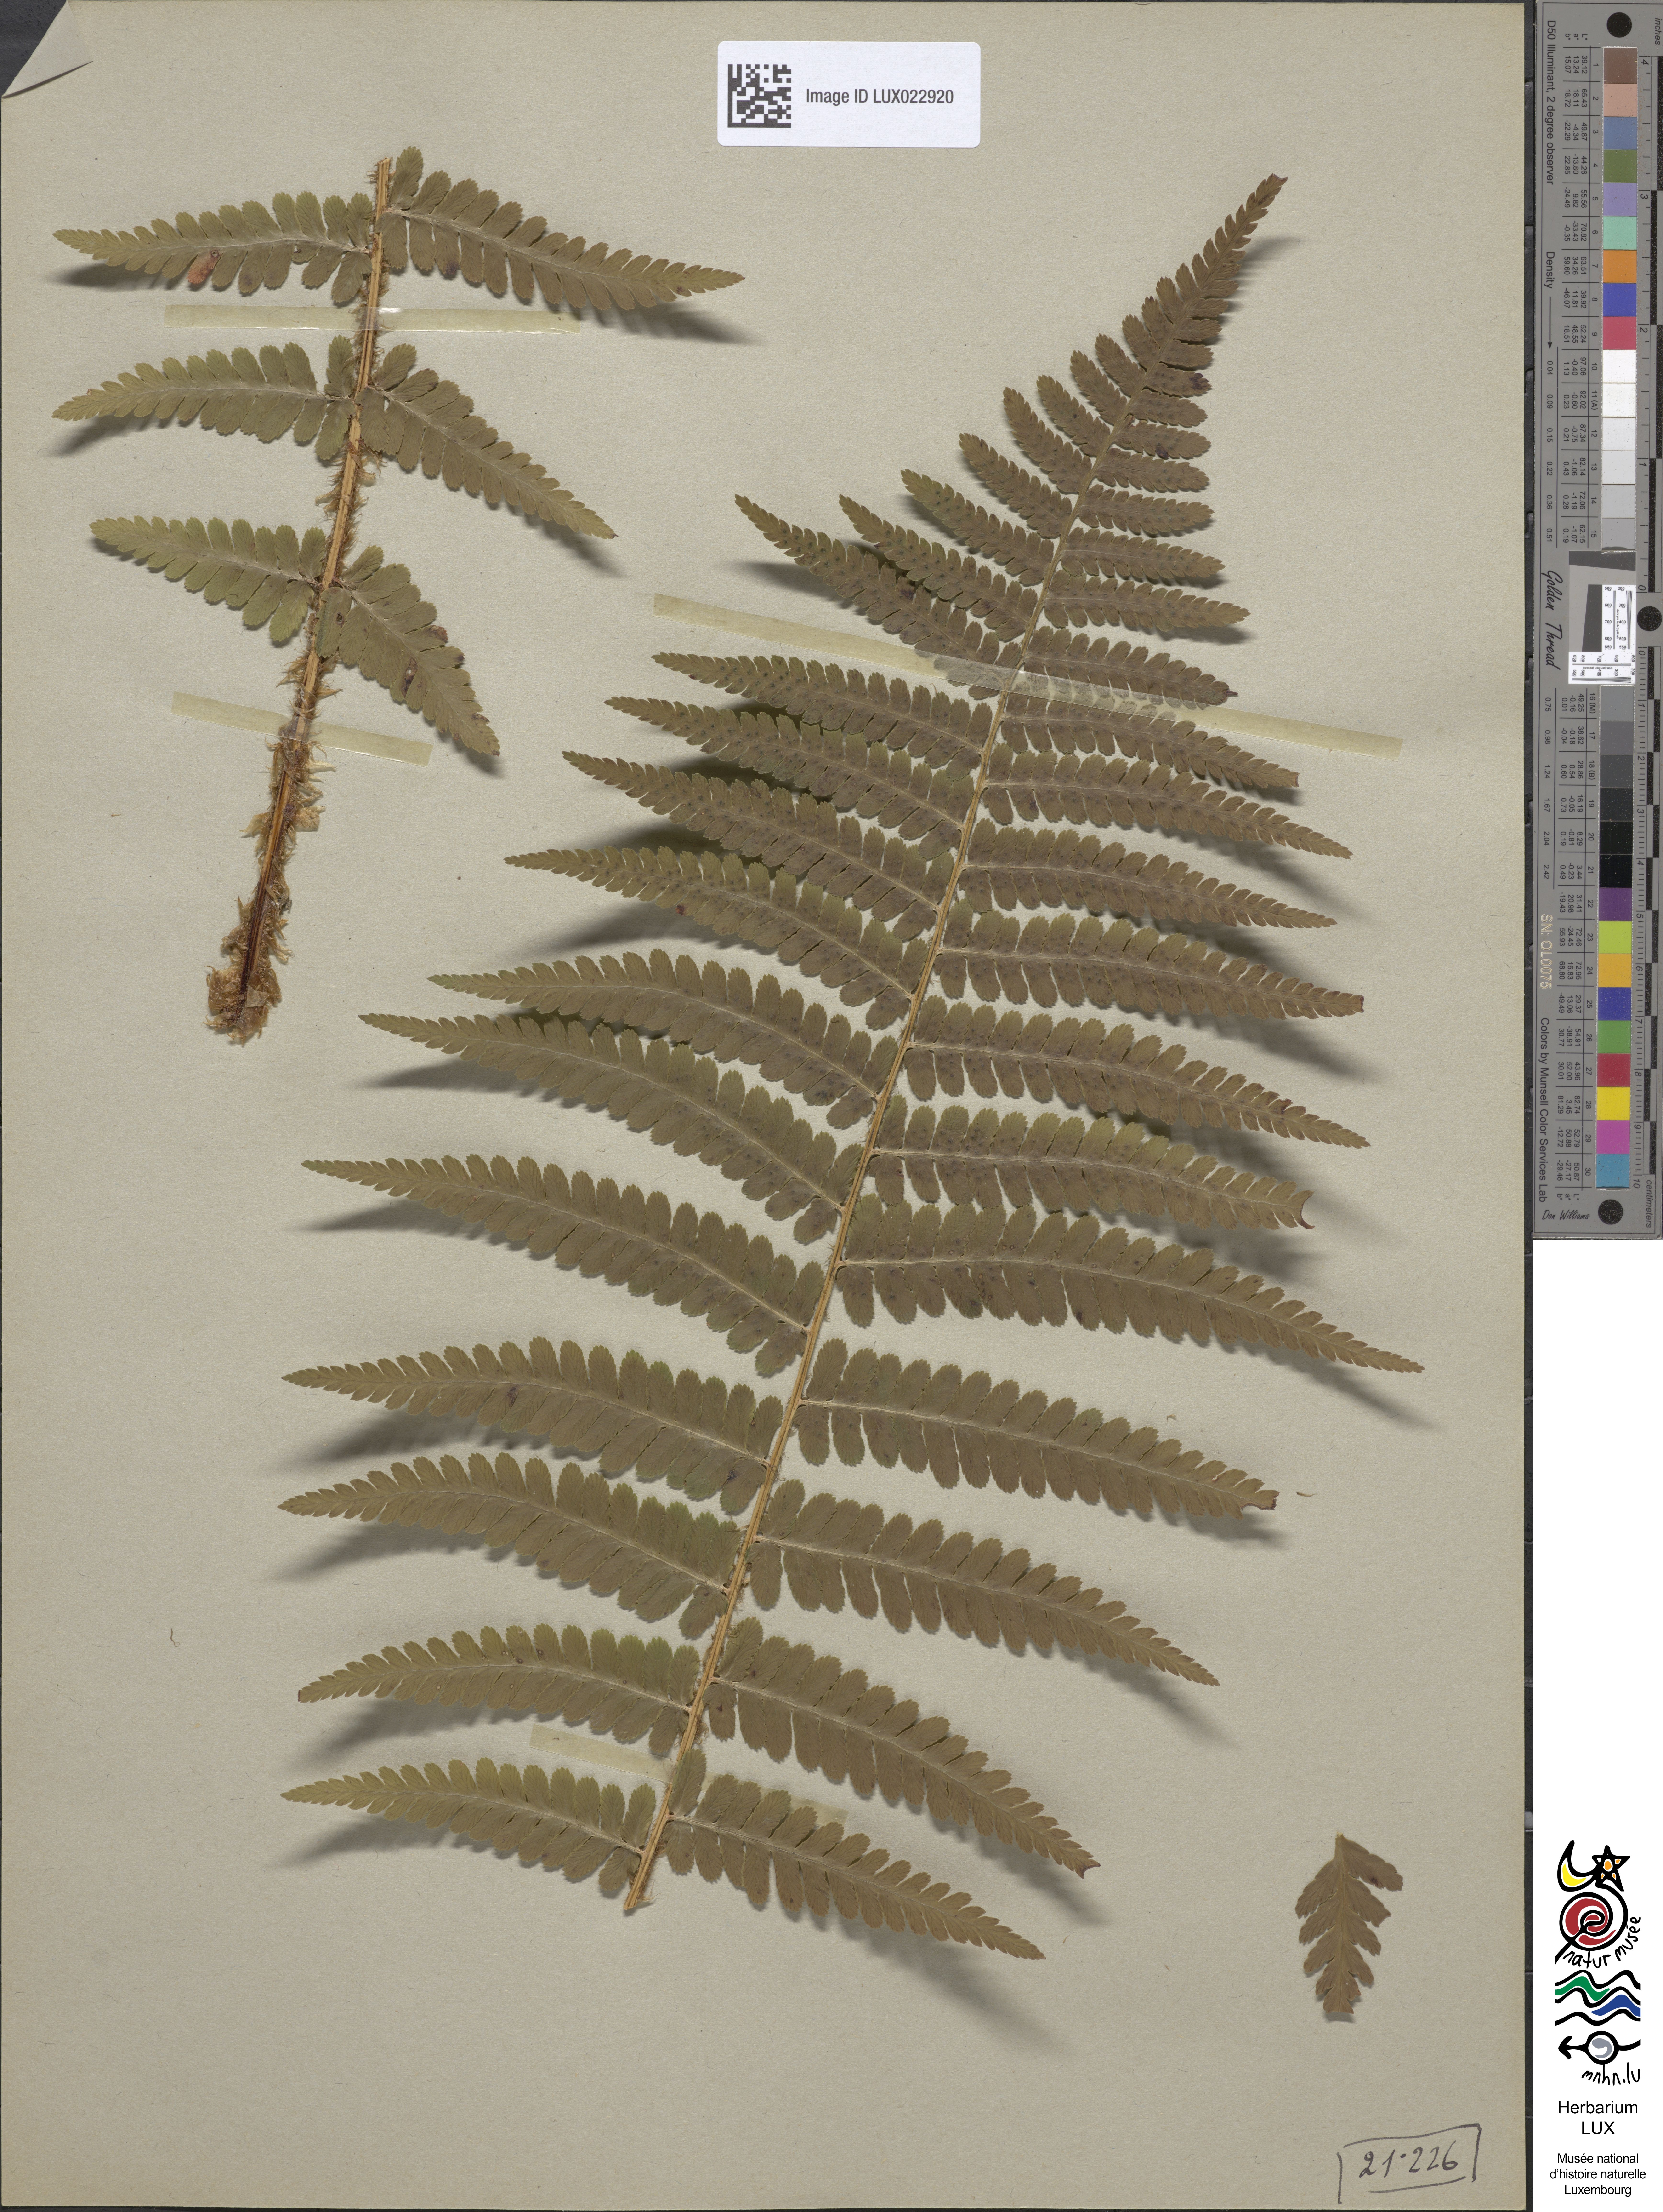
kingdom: Plantae
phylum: Tracheophyta
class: Polypodiopsida
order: Polypodiales
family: Dryopteridaceae
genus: Dryopteris
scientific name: Dryopteris filix-mas
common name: Male fern
